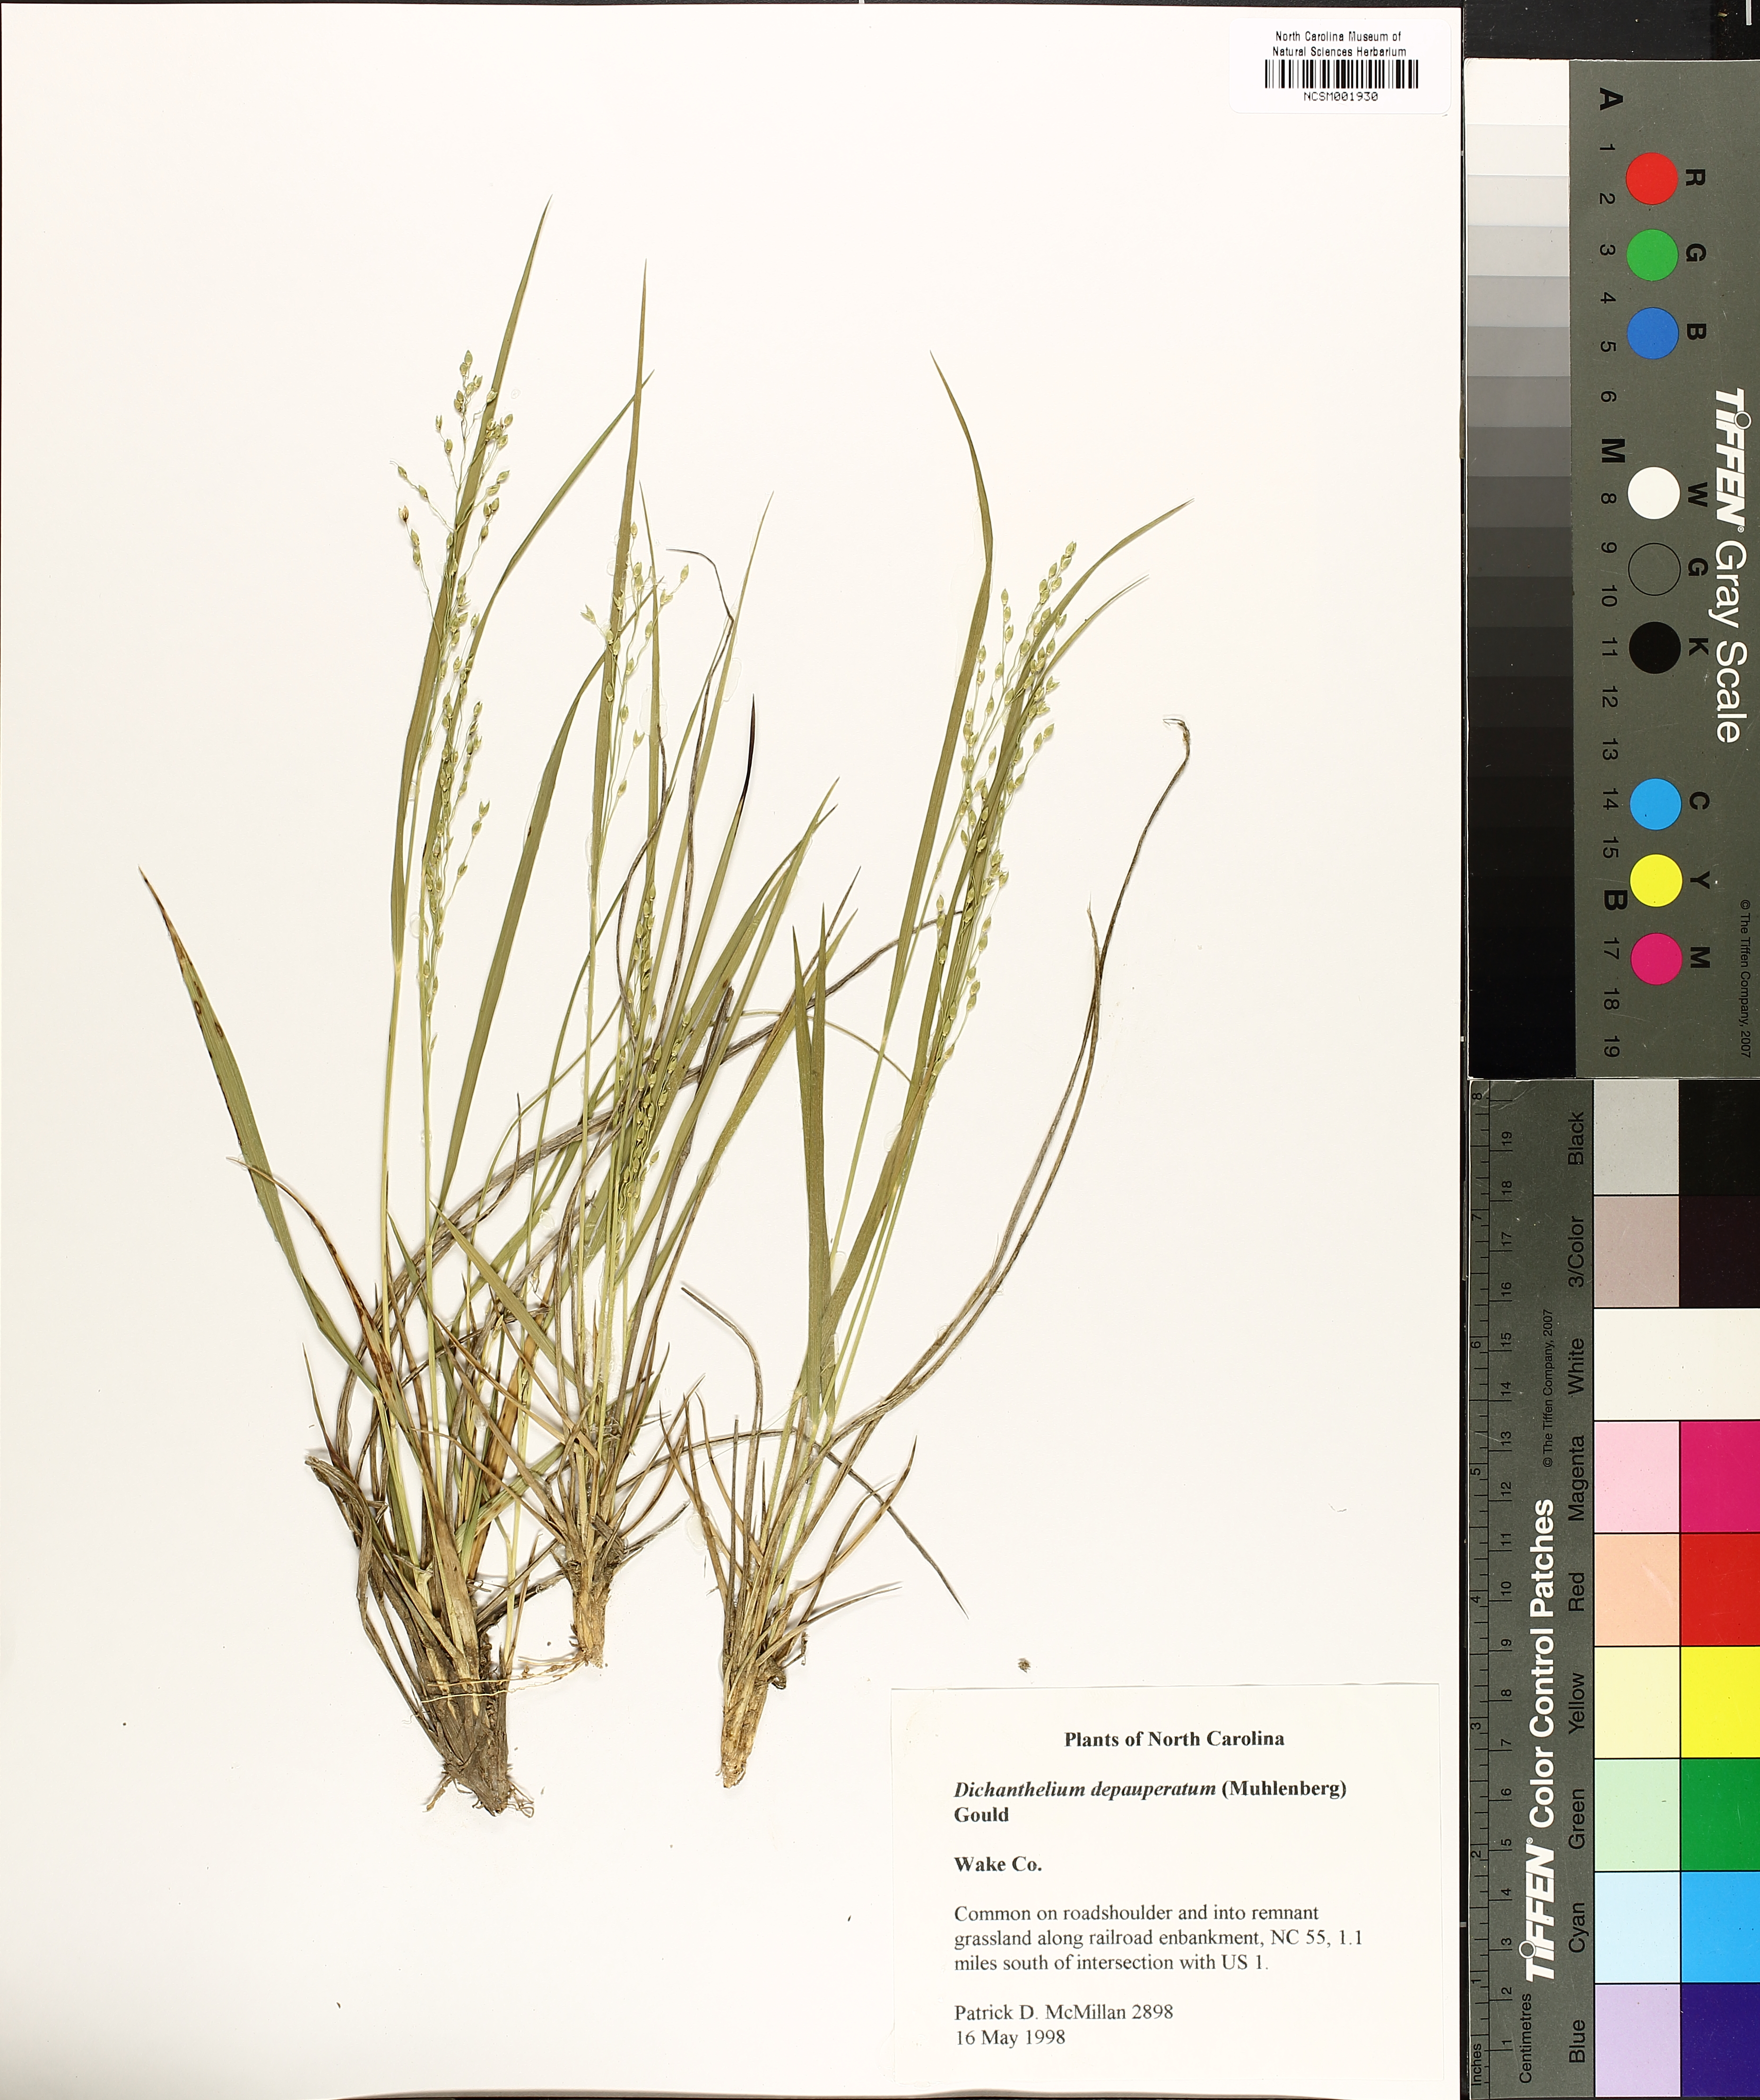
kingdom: Plantae
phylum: Tracheophyta
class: Liliopsida
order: Poales
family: Poaceae
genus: Dichanthelium
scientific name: Dichanthelium depauperatum
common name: Depauperate panicgrass
